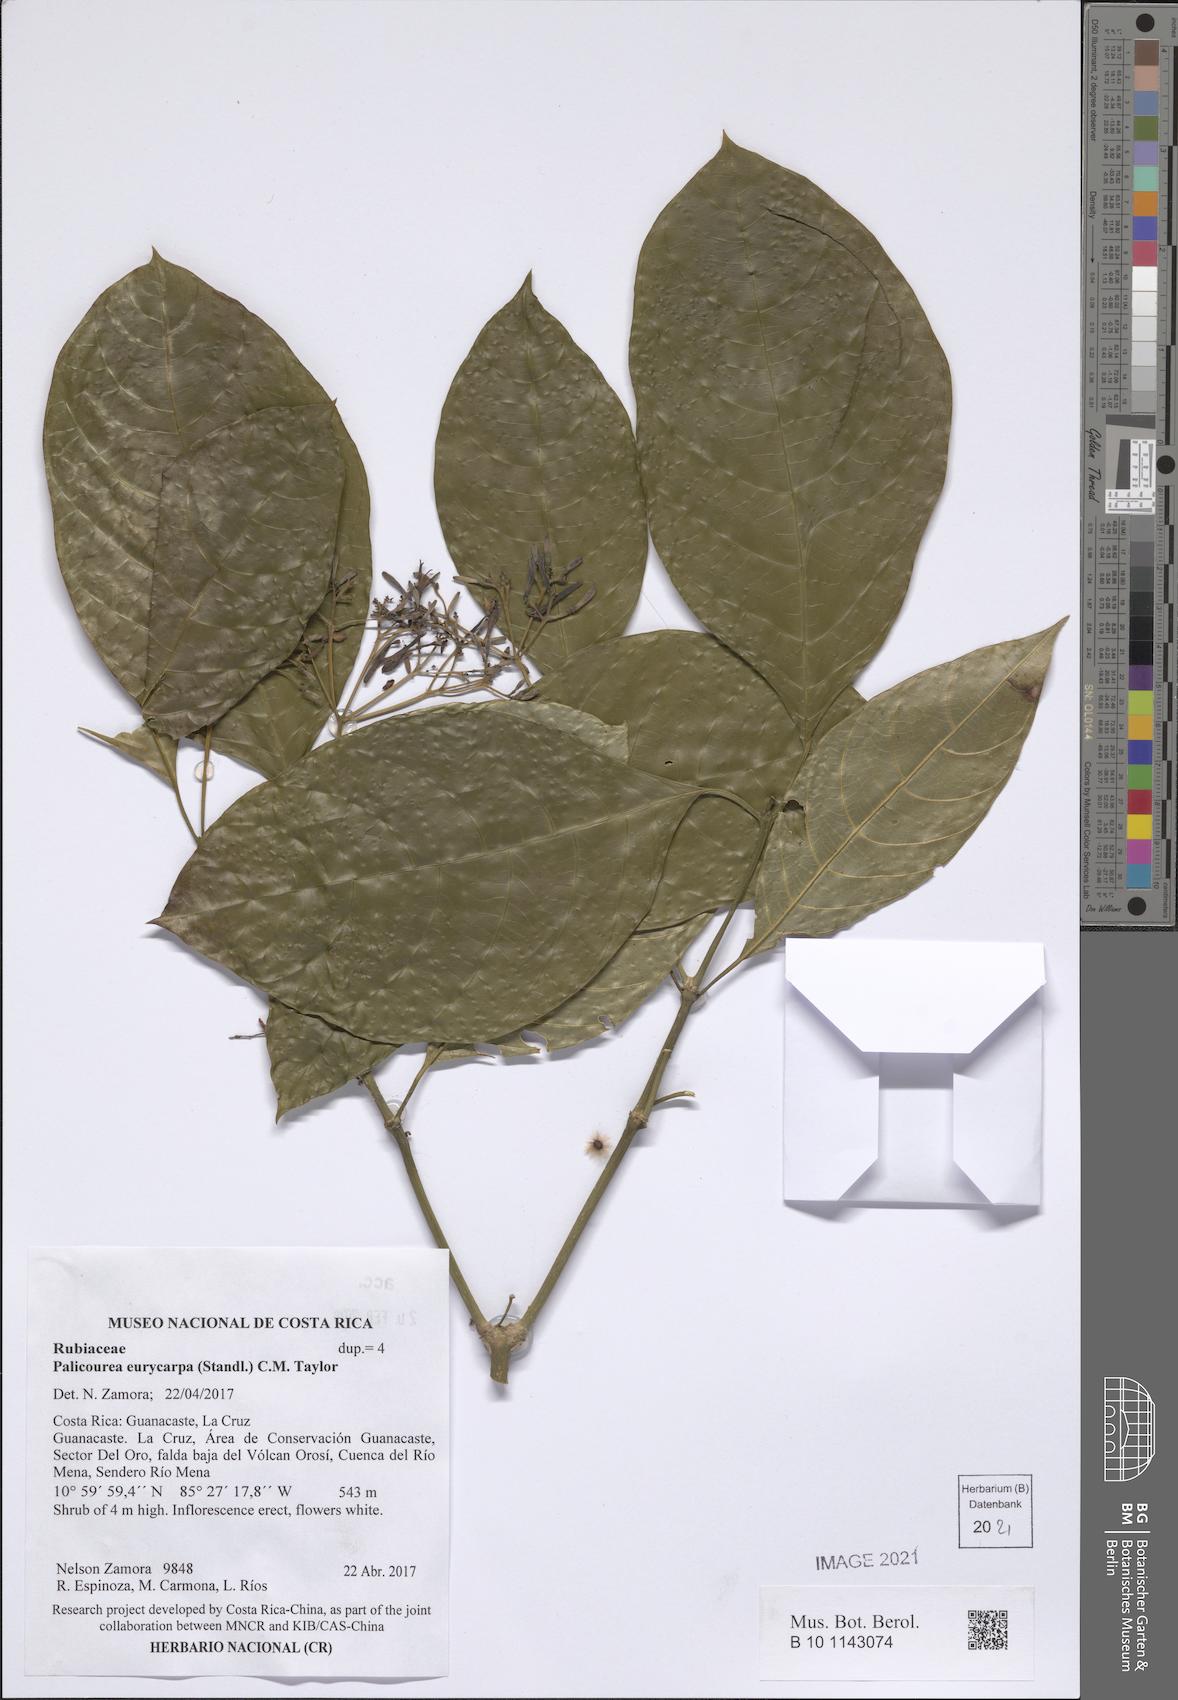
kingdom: Plantae
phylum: Tracheophyta
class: Magnoliopsida
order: Gentianales
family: Rubiaceae
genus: Palicourea
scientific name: Palicourea eurycarpa
